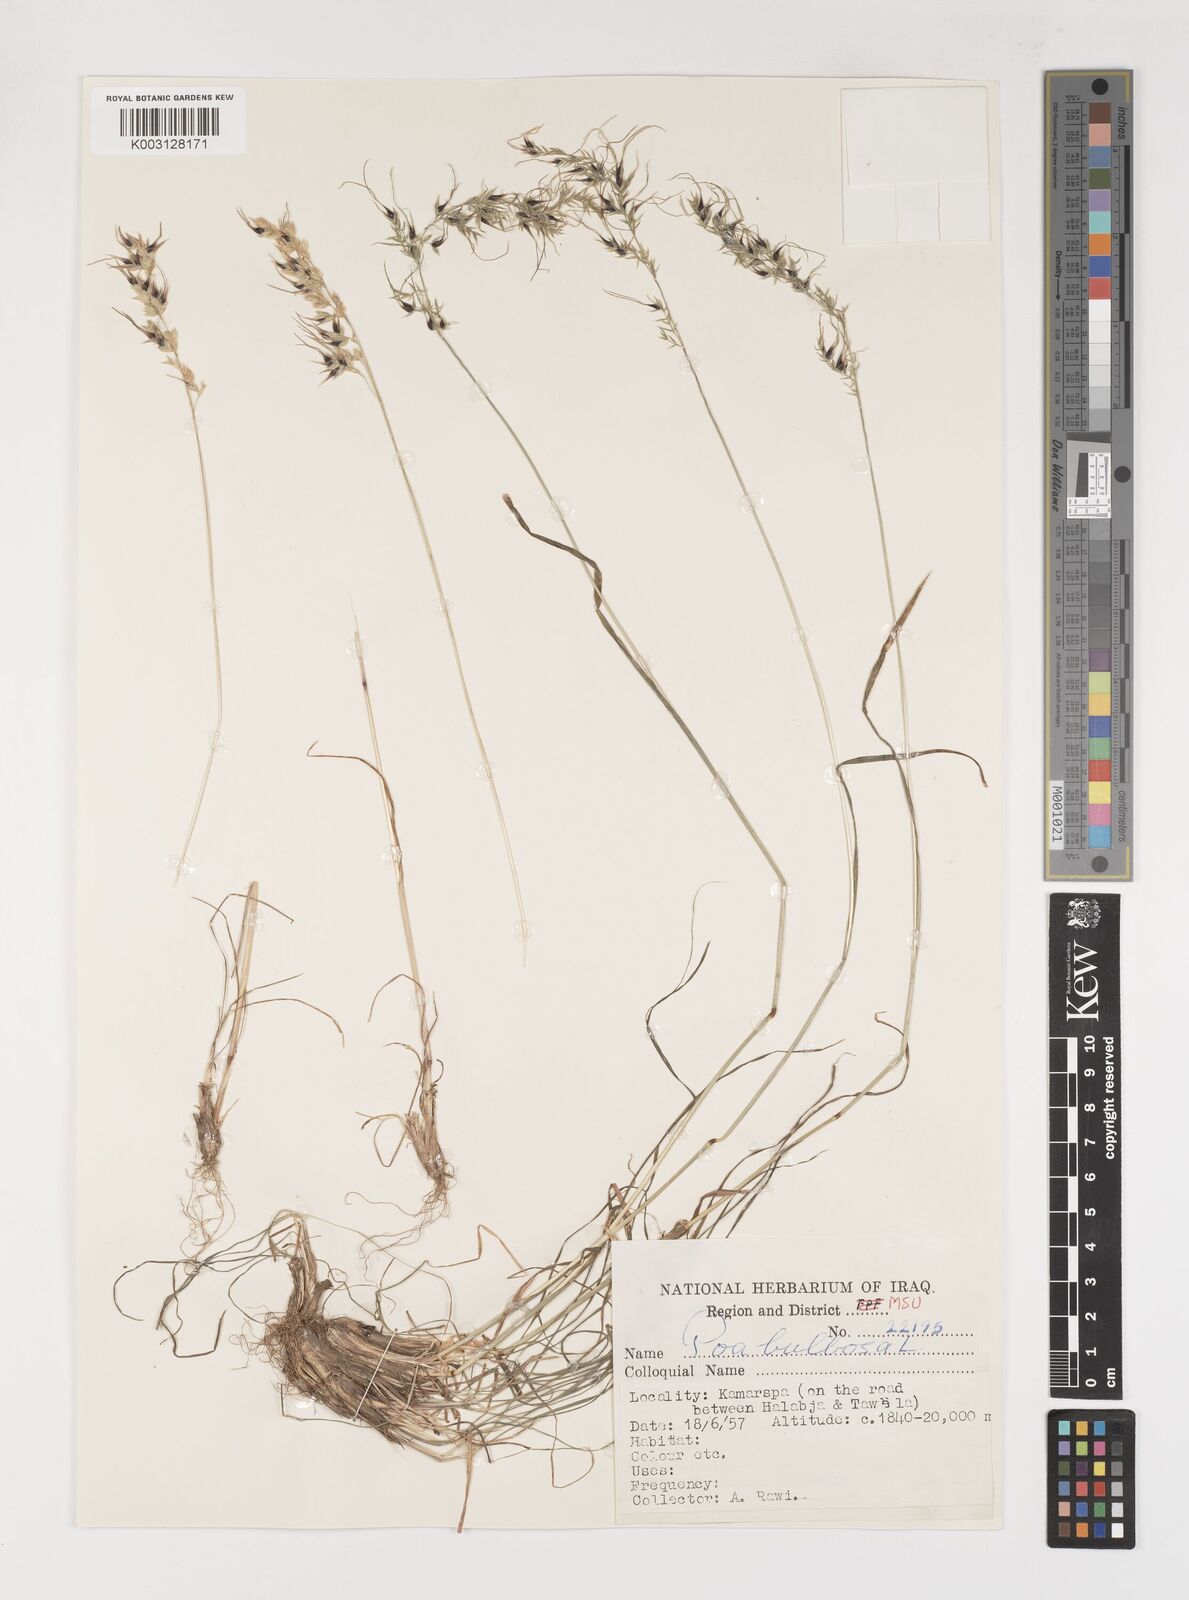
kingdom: Plantae
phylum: Tracheophyta
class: Liliopsida
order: Poales
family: Poaceae
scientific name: Poaceae
